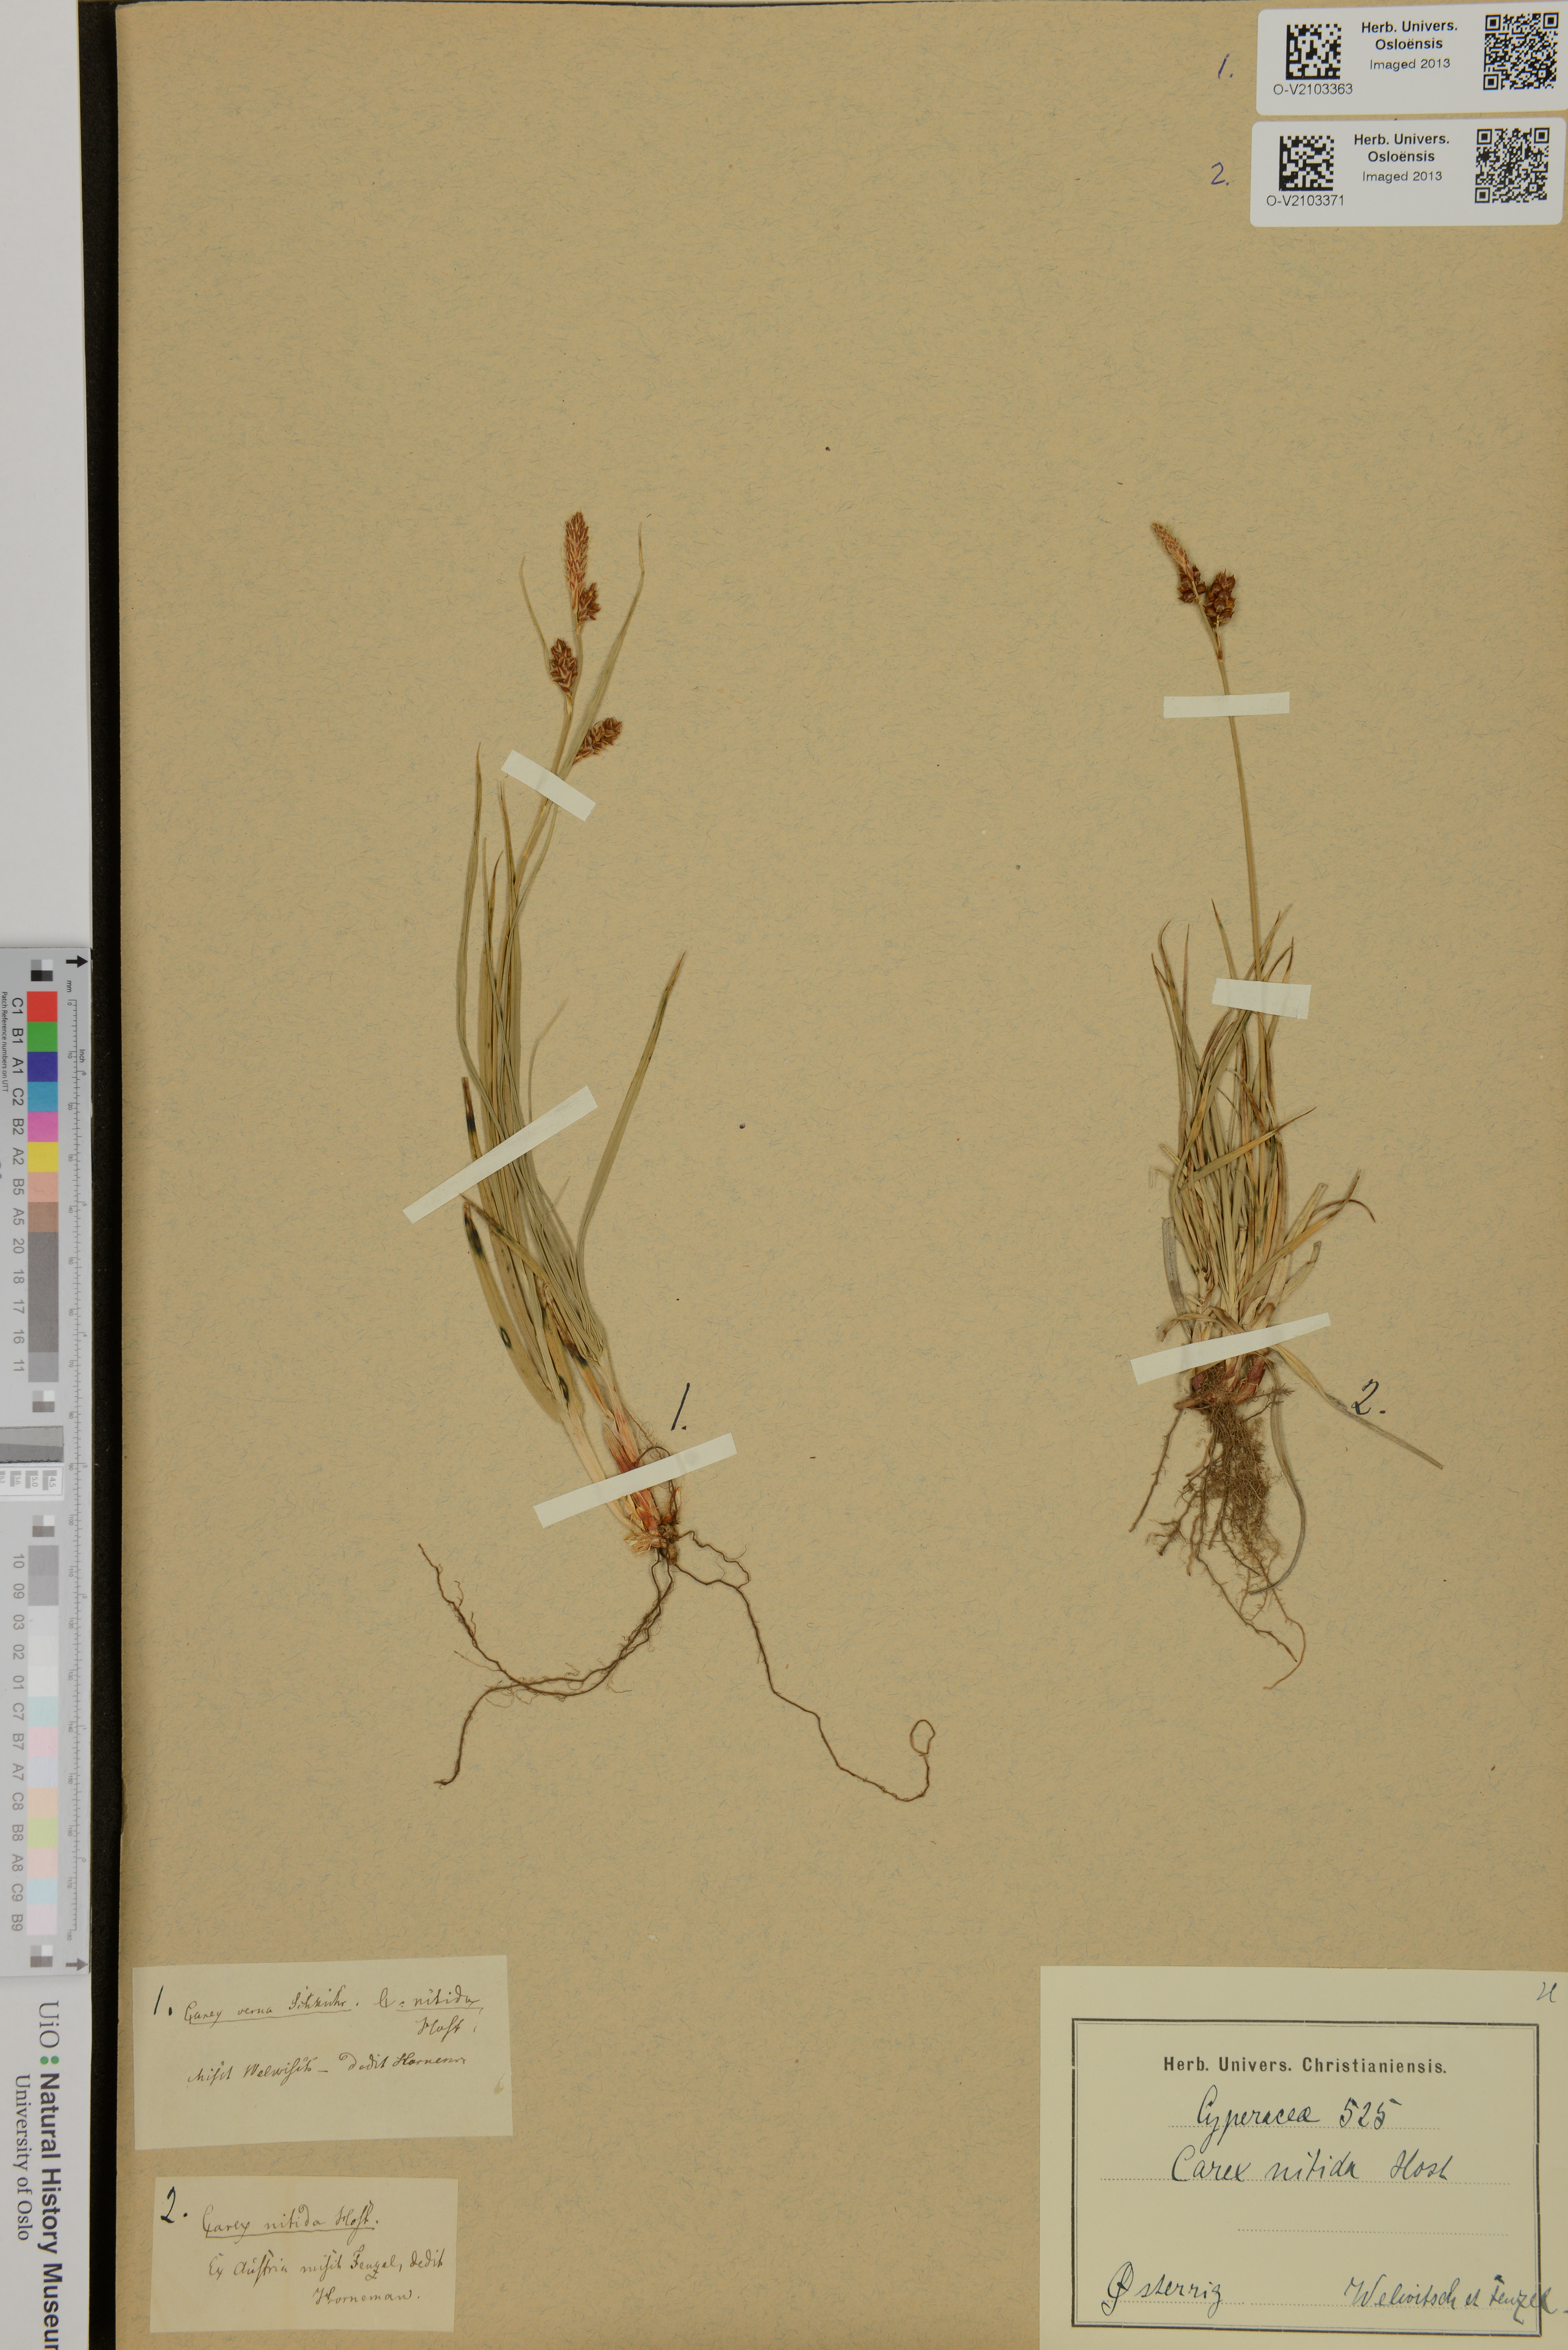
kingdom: Plantae
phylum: Tracheophyta
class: Liliopsida
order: Poales
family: Cyperaceae
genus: Carex
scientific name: Carex nitida
